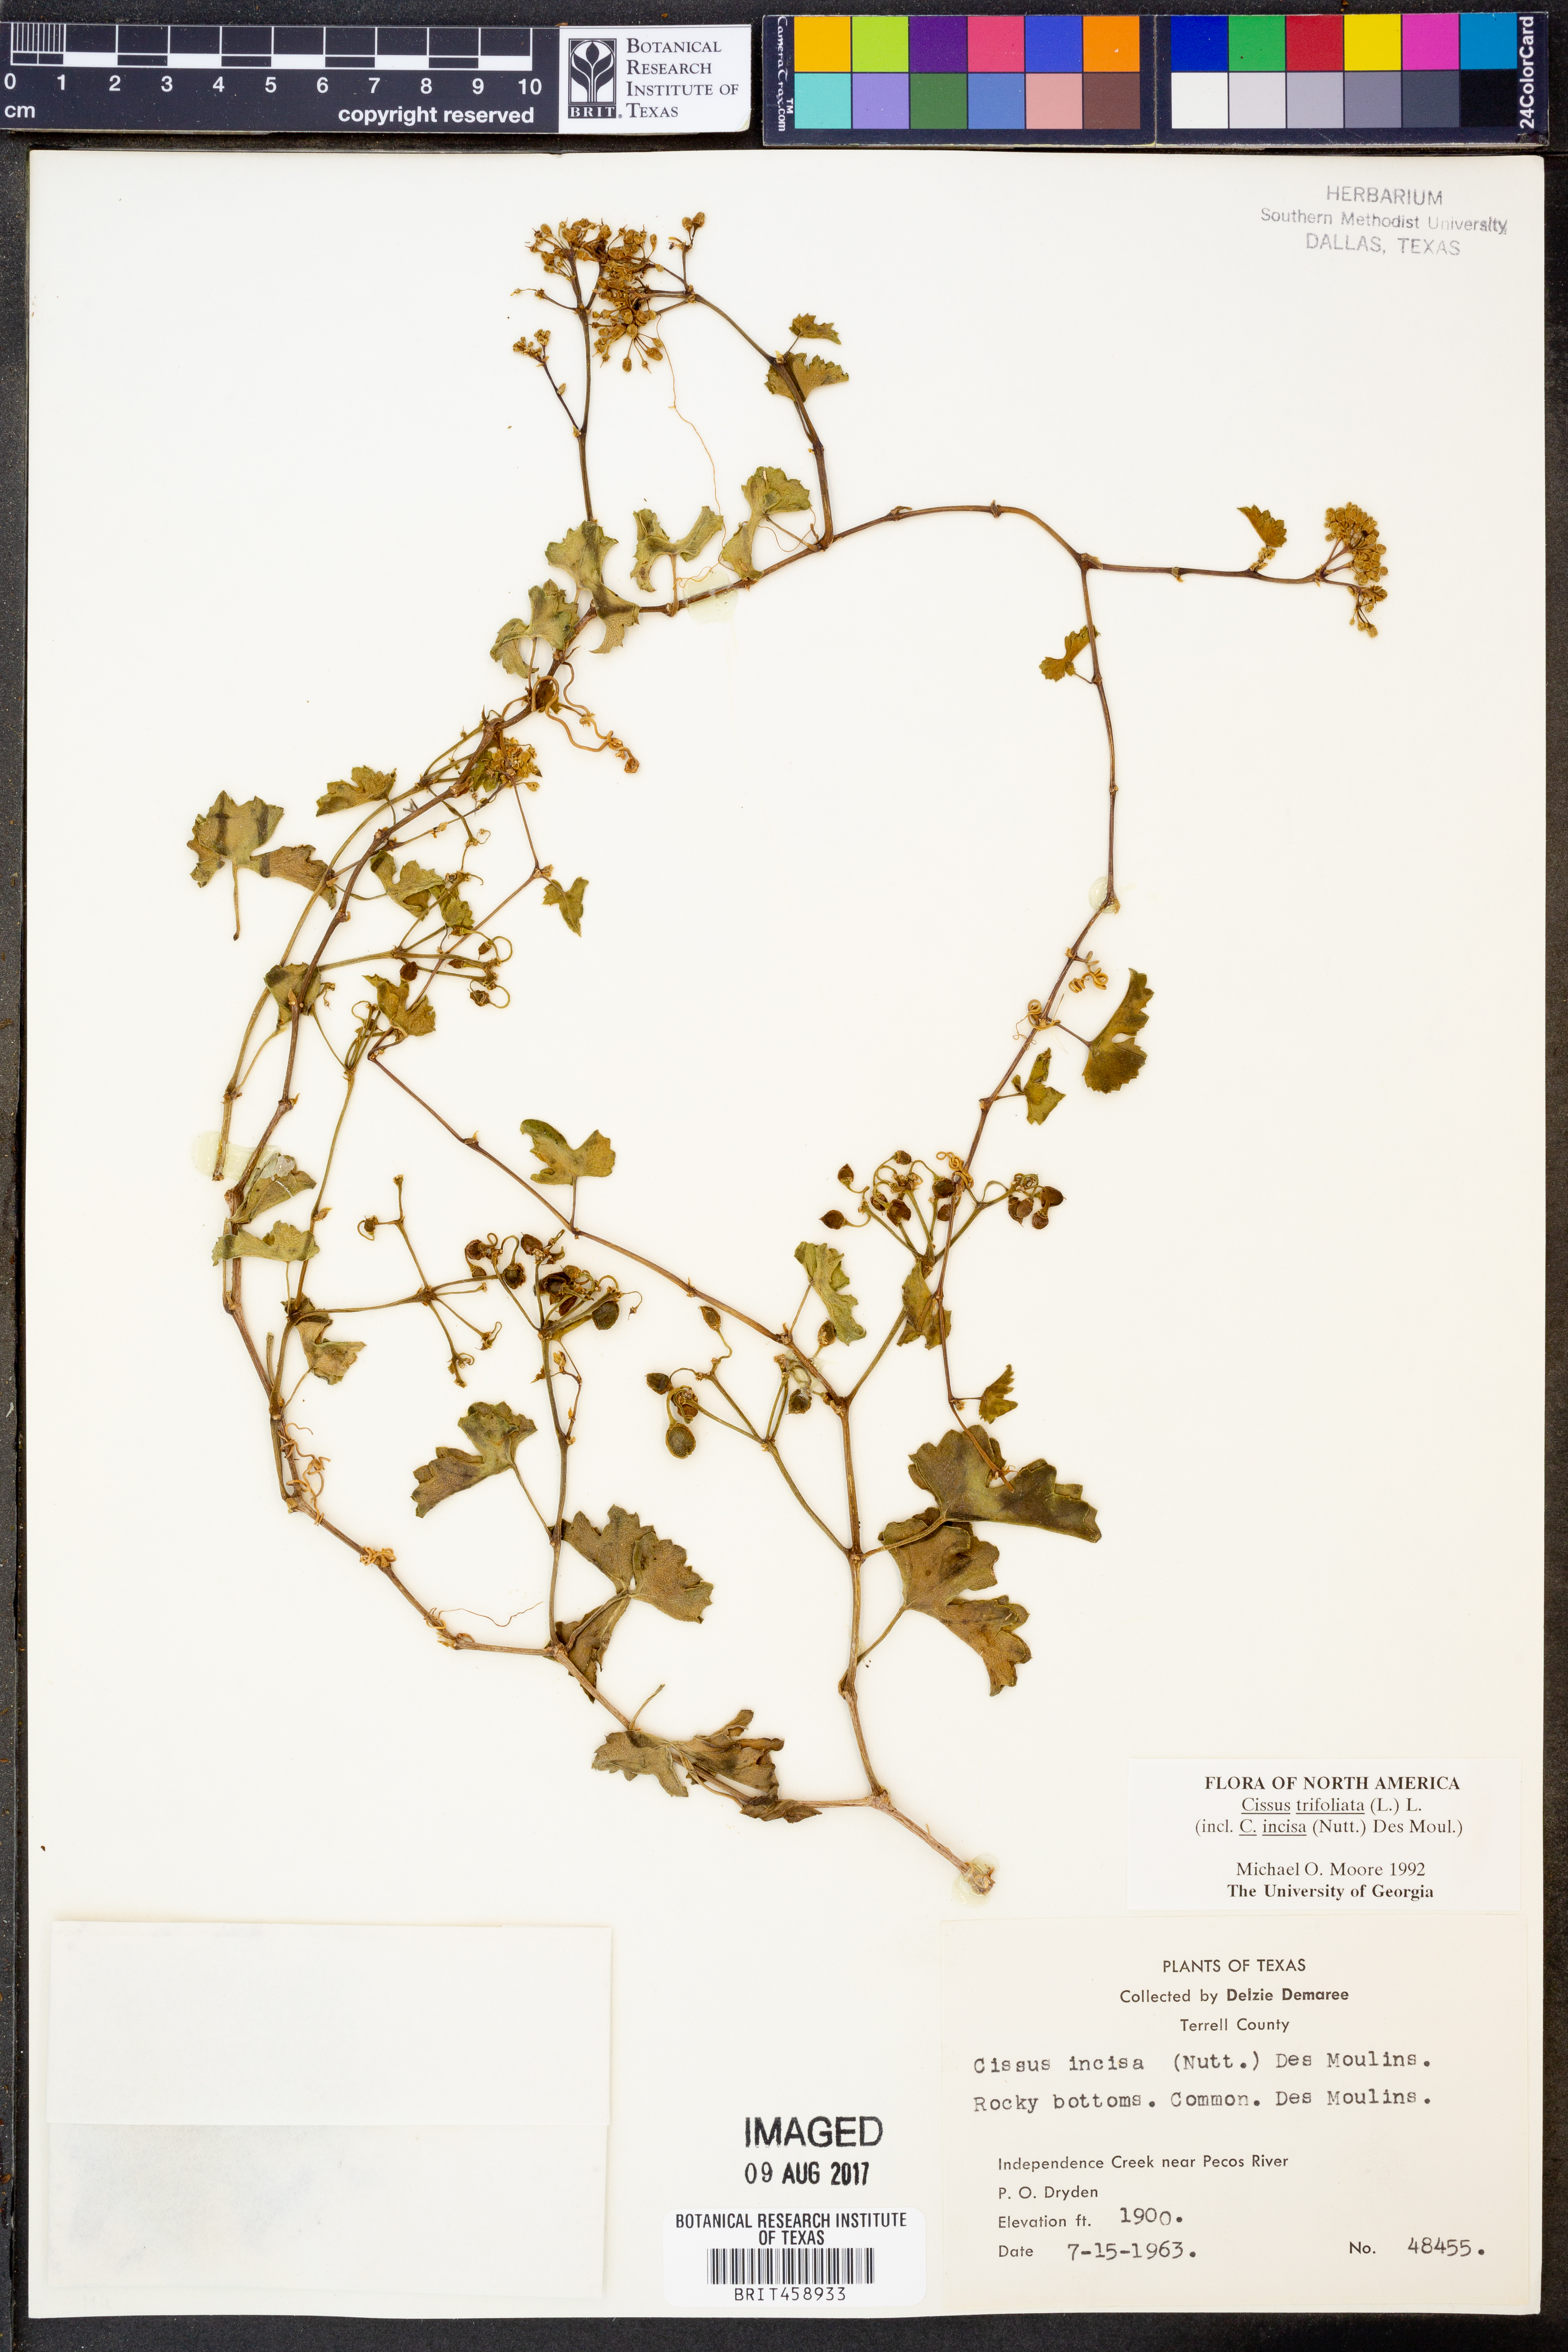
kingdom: Plantae
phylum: Tracheophyta
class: Magnoliopsida
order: Vitales
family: Vitaceae
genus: Cissus
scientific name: Cissus trifoliata
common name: Vine-sorrel
